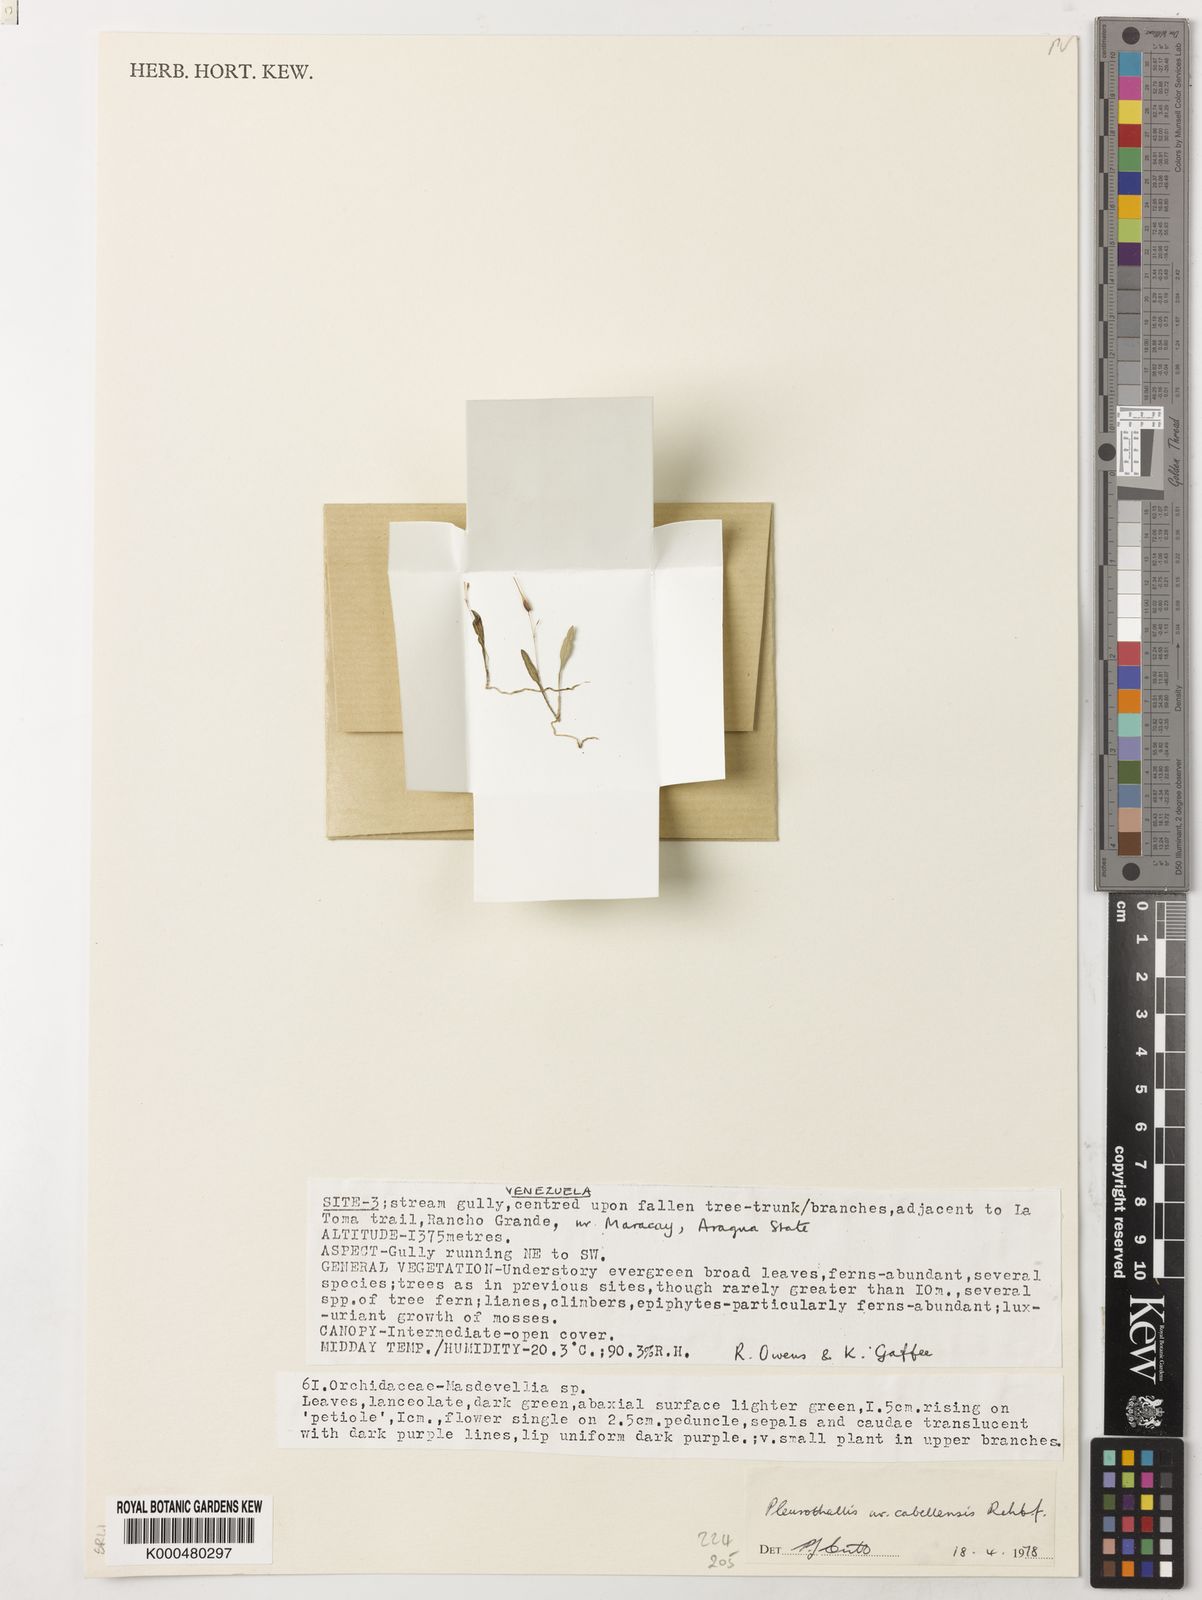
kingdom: Plantae
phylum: Tracheophyta
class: Liliopsida
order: Asparagales
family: Orchidaceae
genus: Muscarella
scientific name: Muscarella cabellensis
